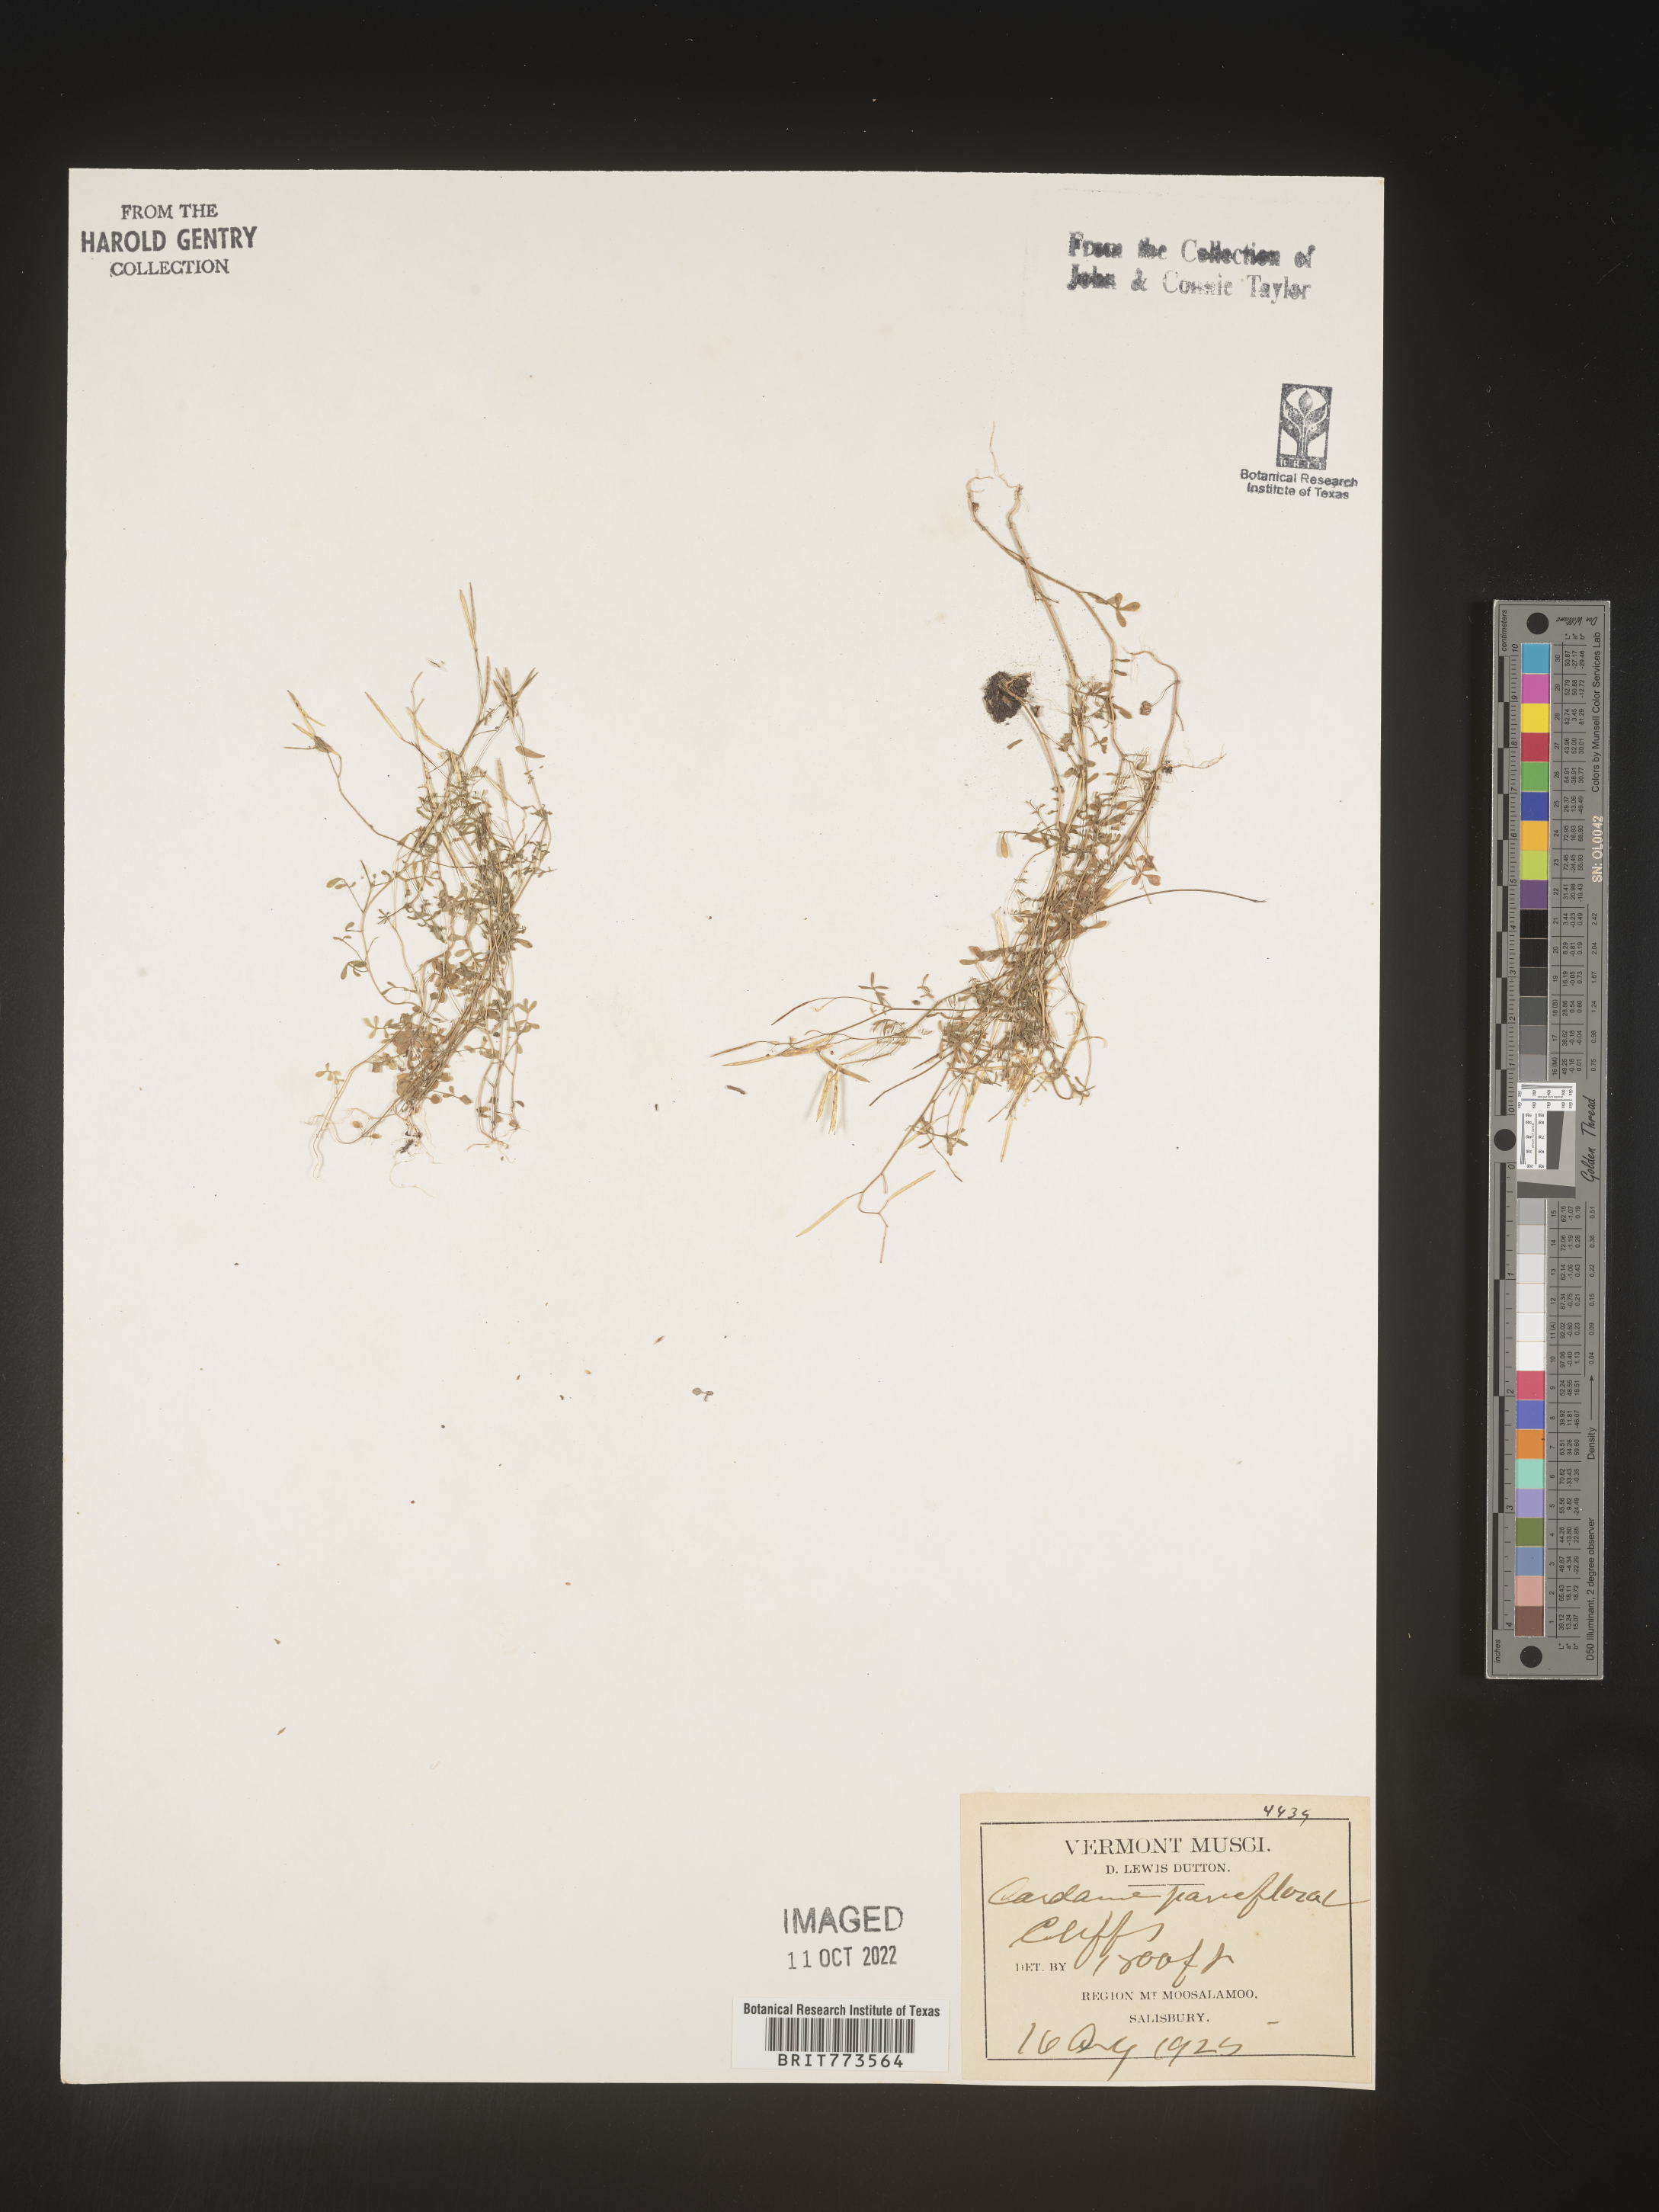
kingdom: Plantae
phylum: Tracheophyta
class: Magnoliopsida
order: Brassicales
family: Brassicaceae
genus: Cardamine
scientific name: Cardamine parviflora
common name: Sand bittercress
